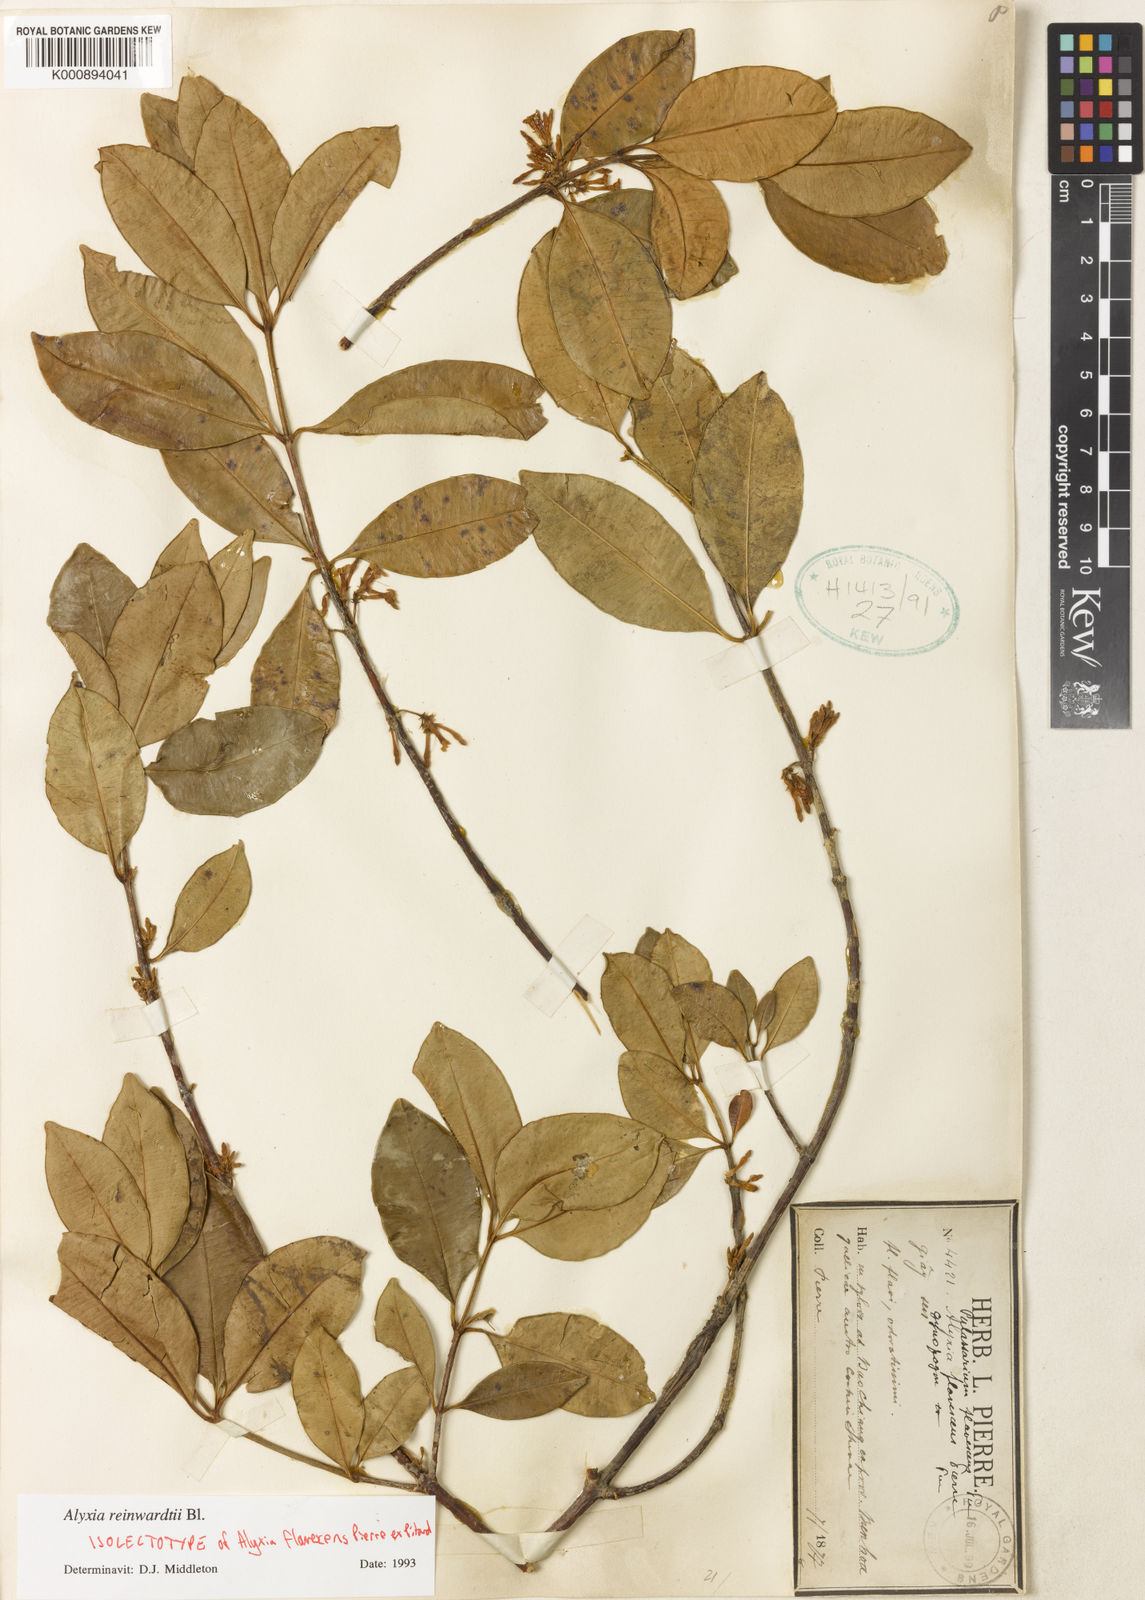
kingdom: Plantae
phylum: Tracheophyta
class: Magnoliopsida
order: Gentianales
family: Apocynaceae
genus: Alyxia
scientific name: Alyxia reinwardtii
